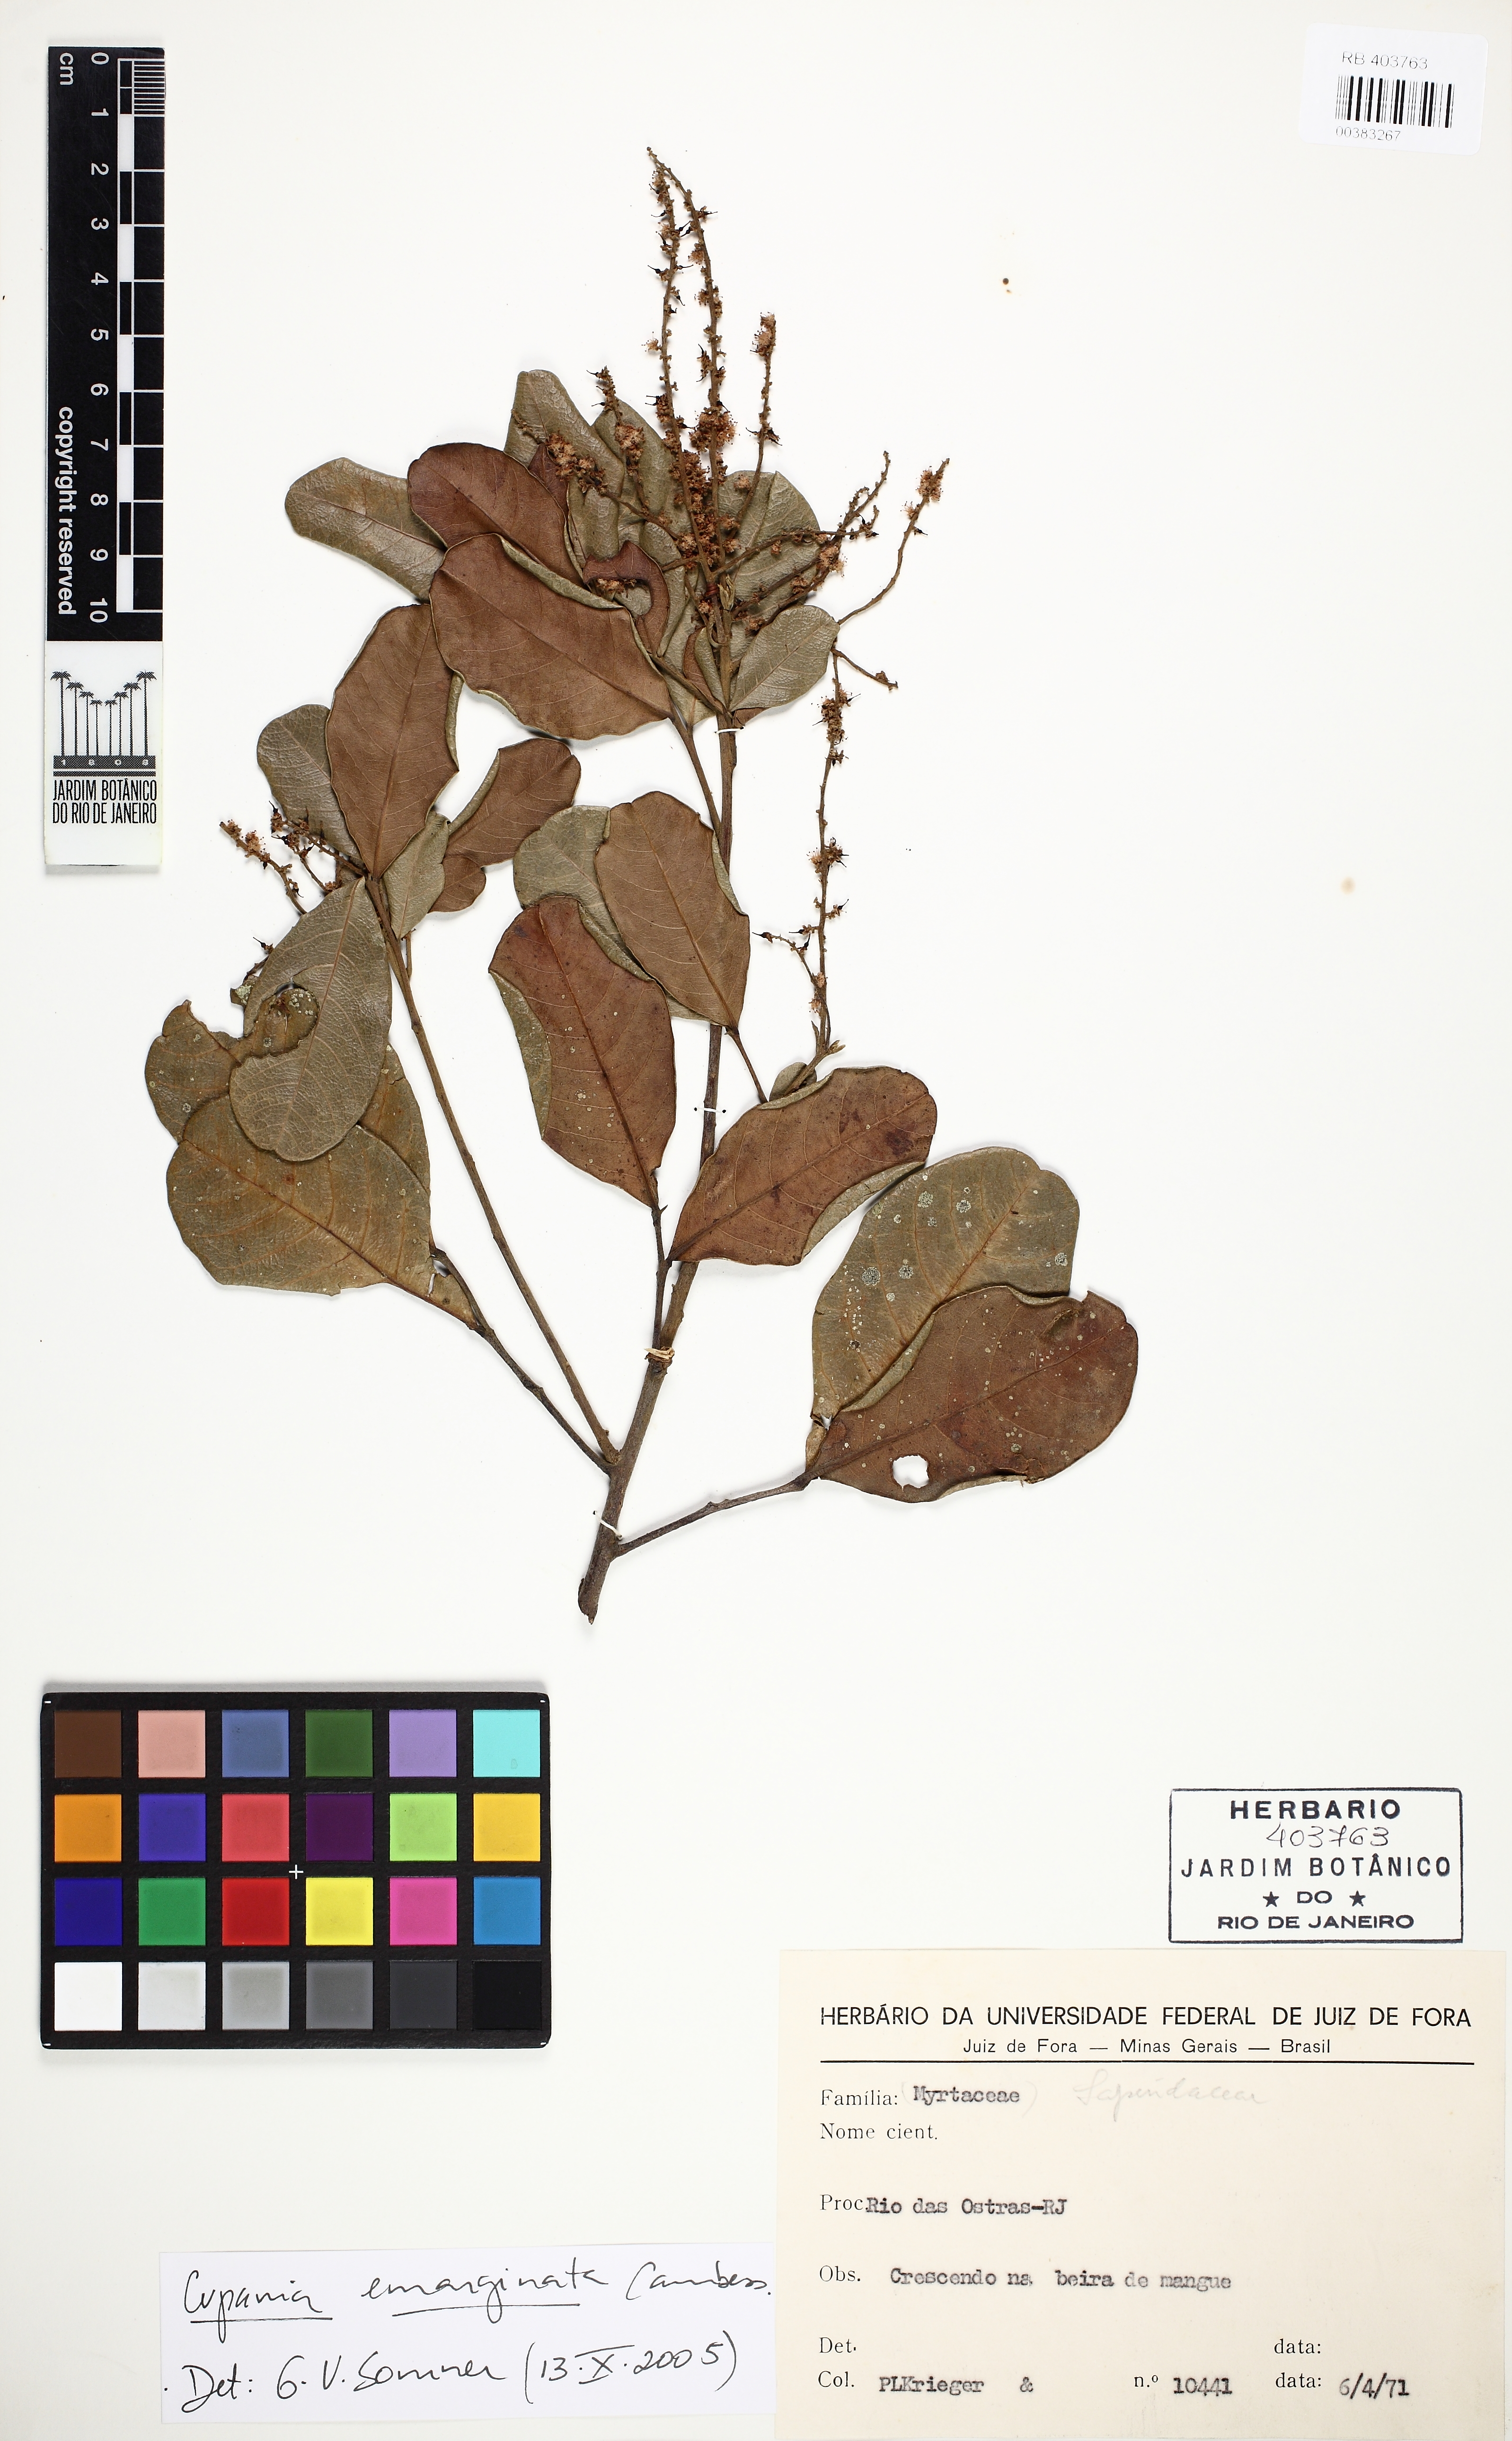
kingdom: Plantae
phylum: Tracheophyta
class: Magnoliopsida
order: Sapindales
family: Sapindaceae
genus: Cupania
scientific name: Cupania emarginata
